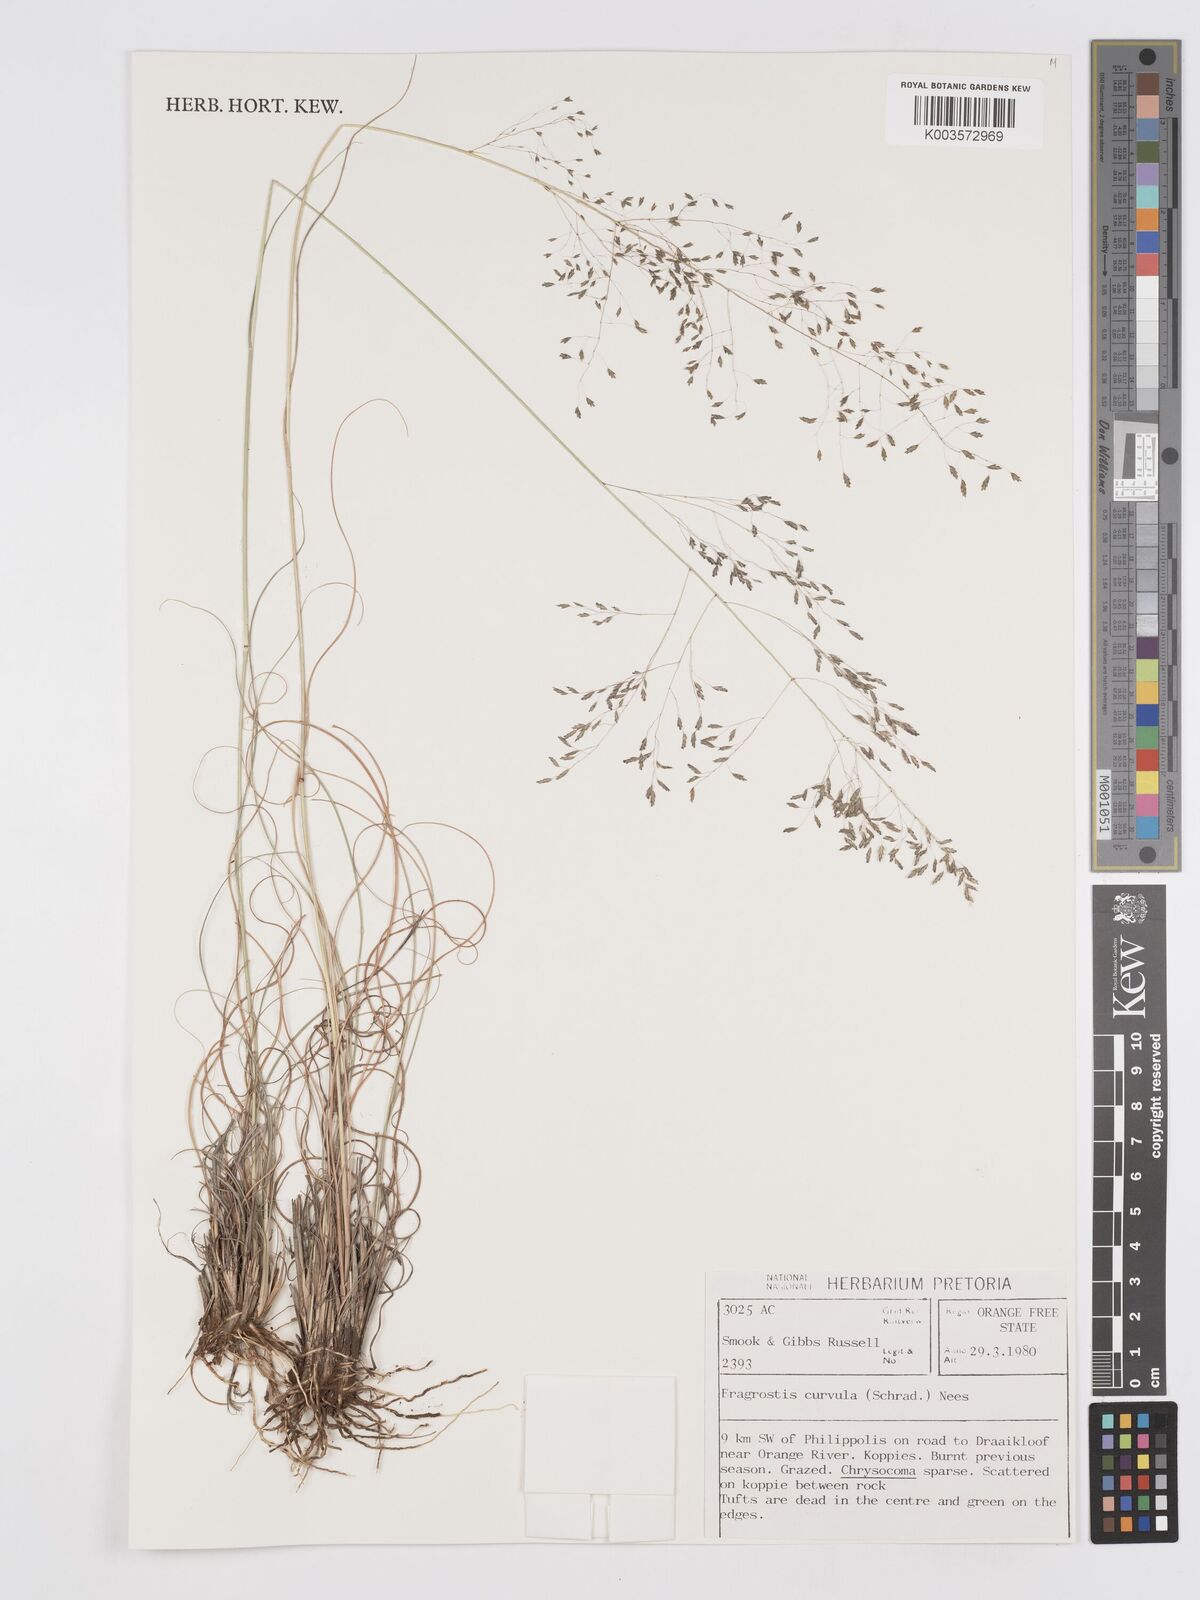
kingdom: Plantae
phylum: Tracheophyta
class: Liliopsida
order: Poales
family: Poaceae
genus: Eragrostis
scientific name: Eragrostis curvula
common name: African love-grass
